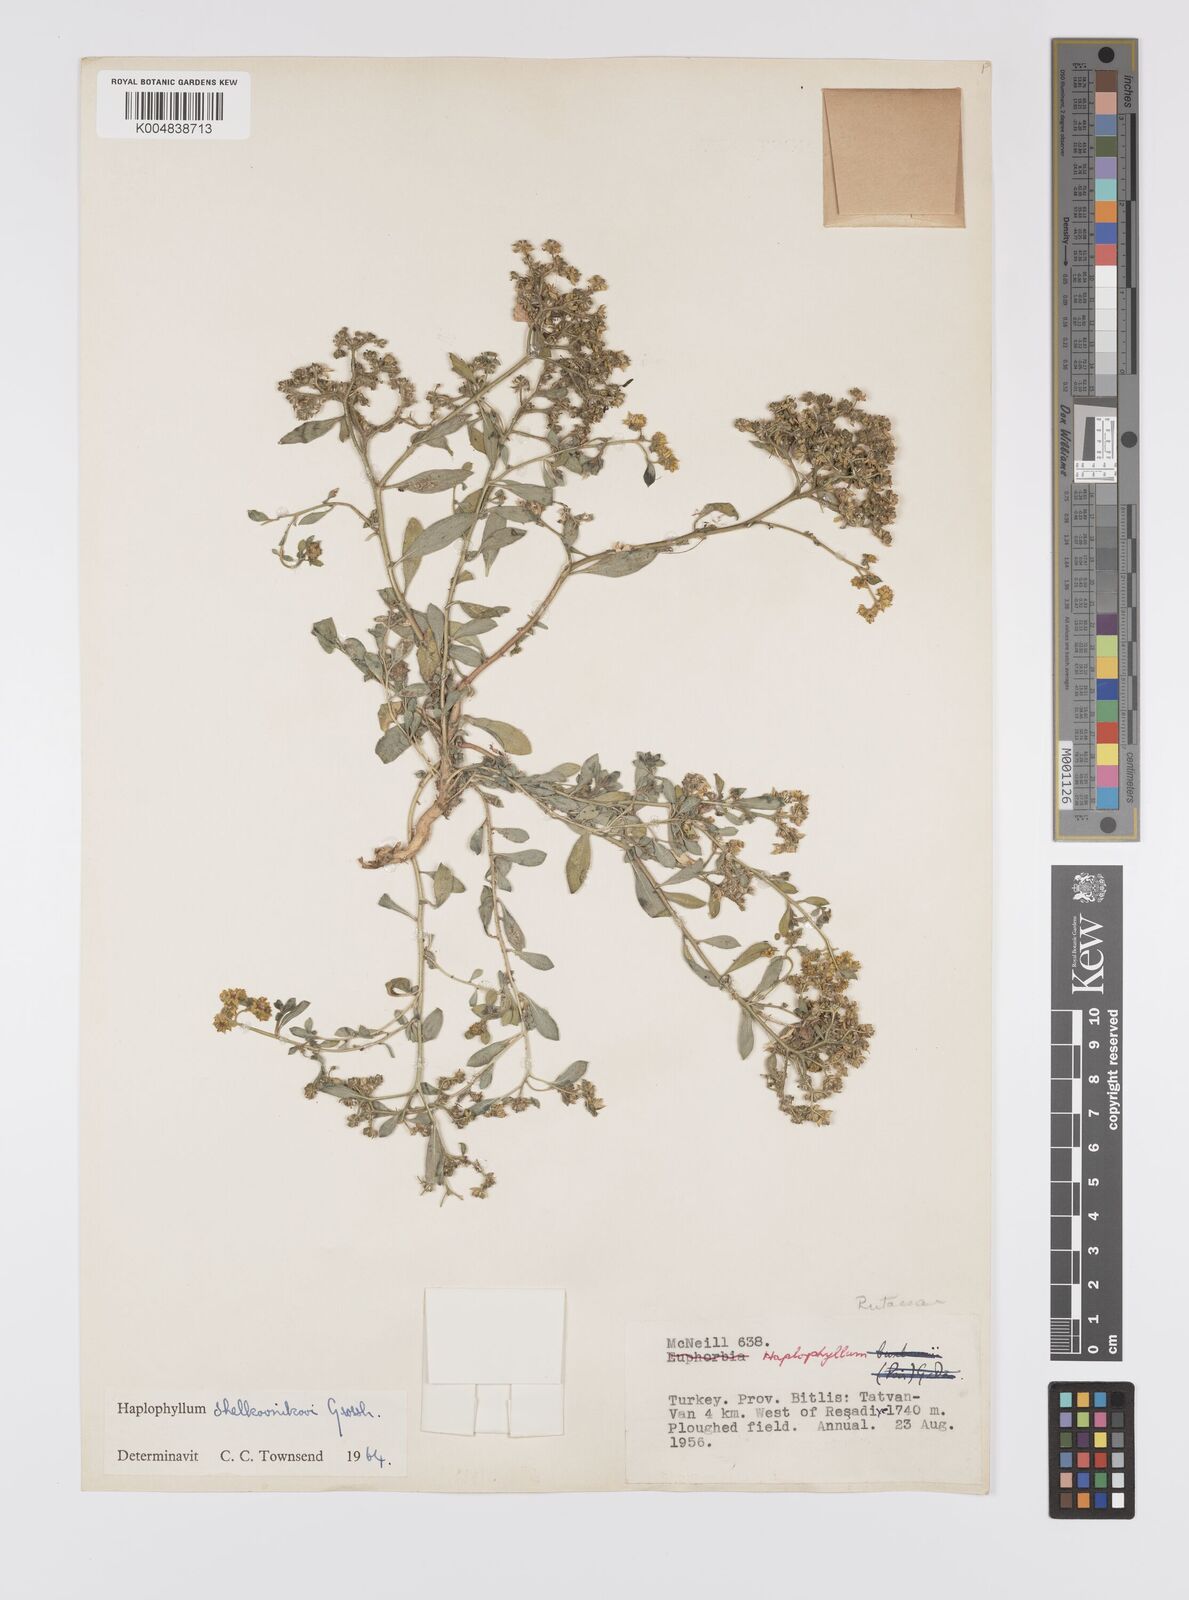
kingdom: Plantae
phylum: Tracheophyta
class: Magnoliopsida
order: Sapindales
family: Rutaceae
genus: Haplophyllum
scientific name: Haplophyllum villosum
